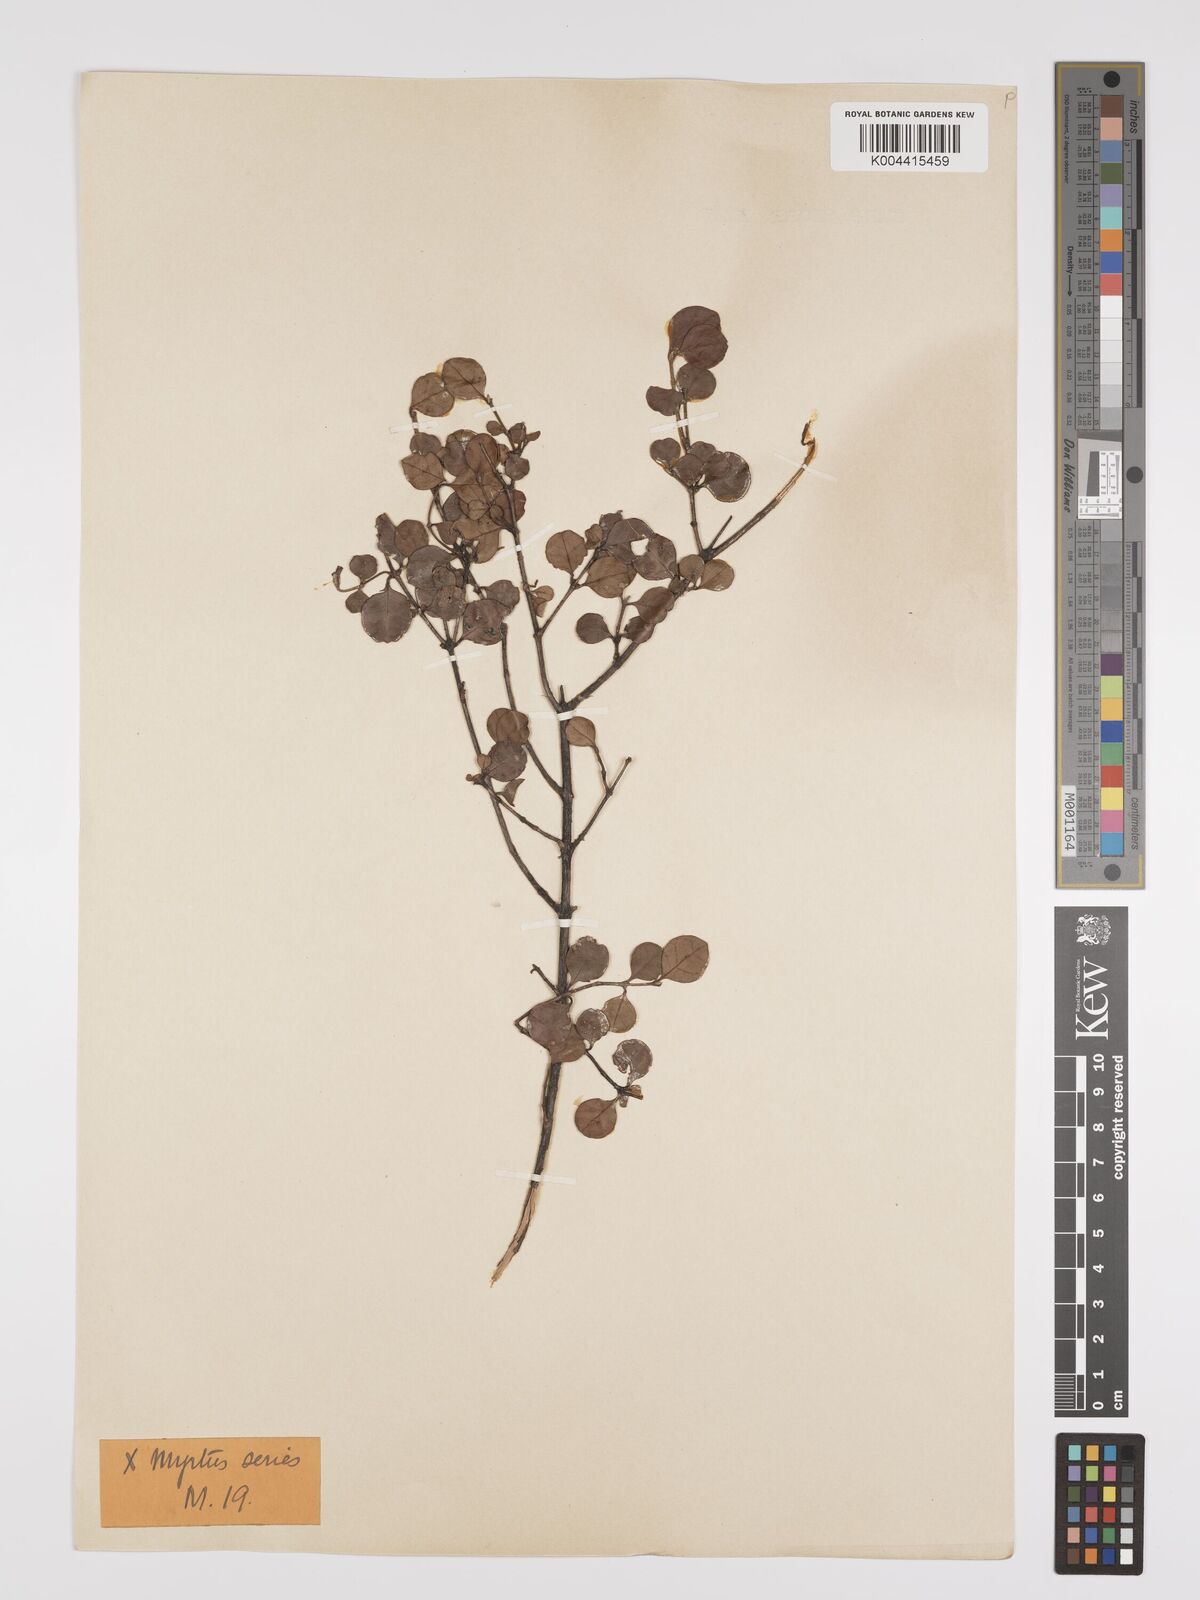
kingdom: Plantae
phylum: Tracheophyta
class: Magnoliopsida
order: Myrtales
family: Myrtaceae
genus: Lophomyrtus
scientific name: Lophomyrtus bullata
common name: Rama rama
